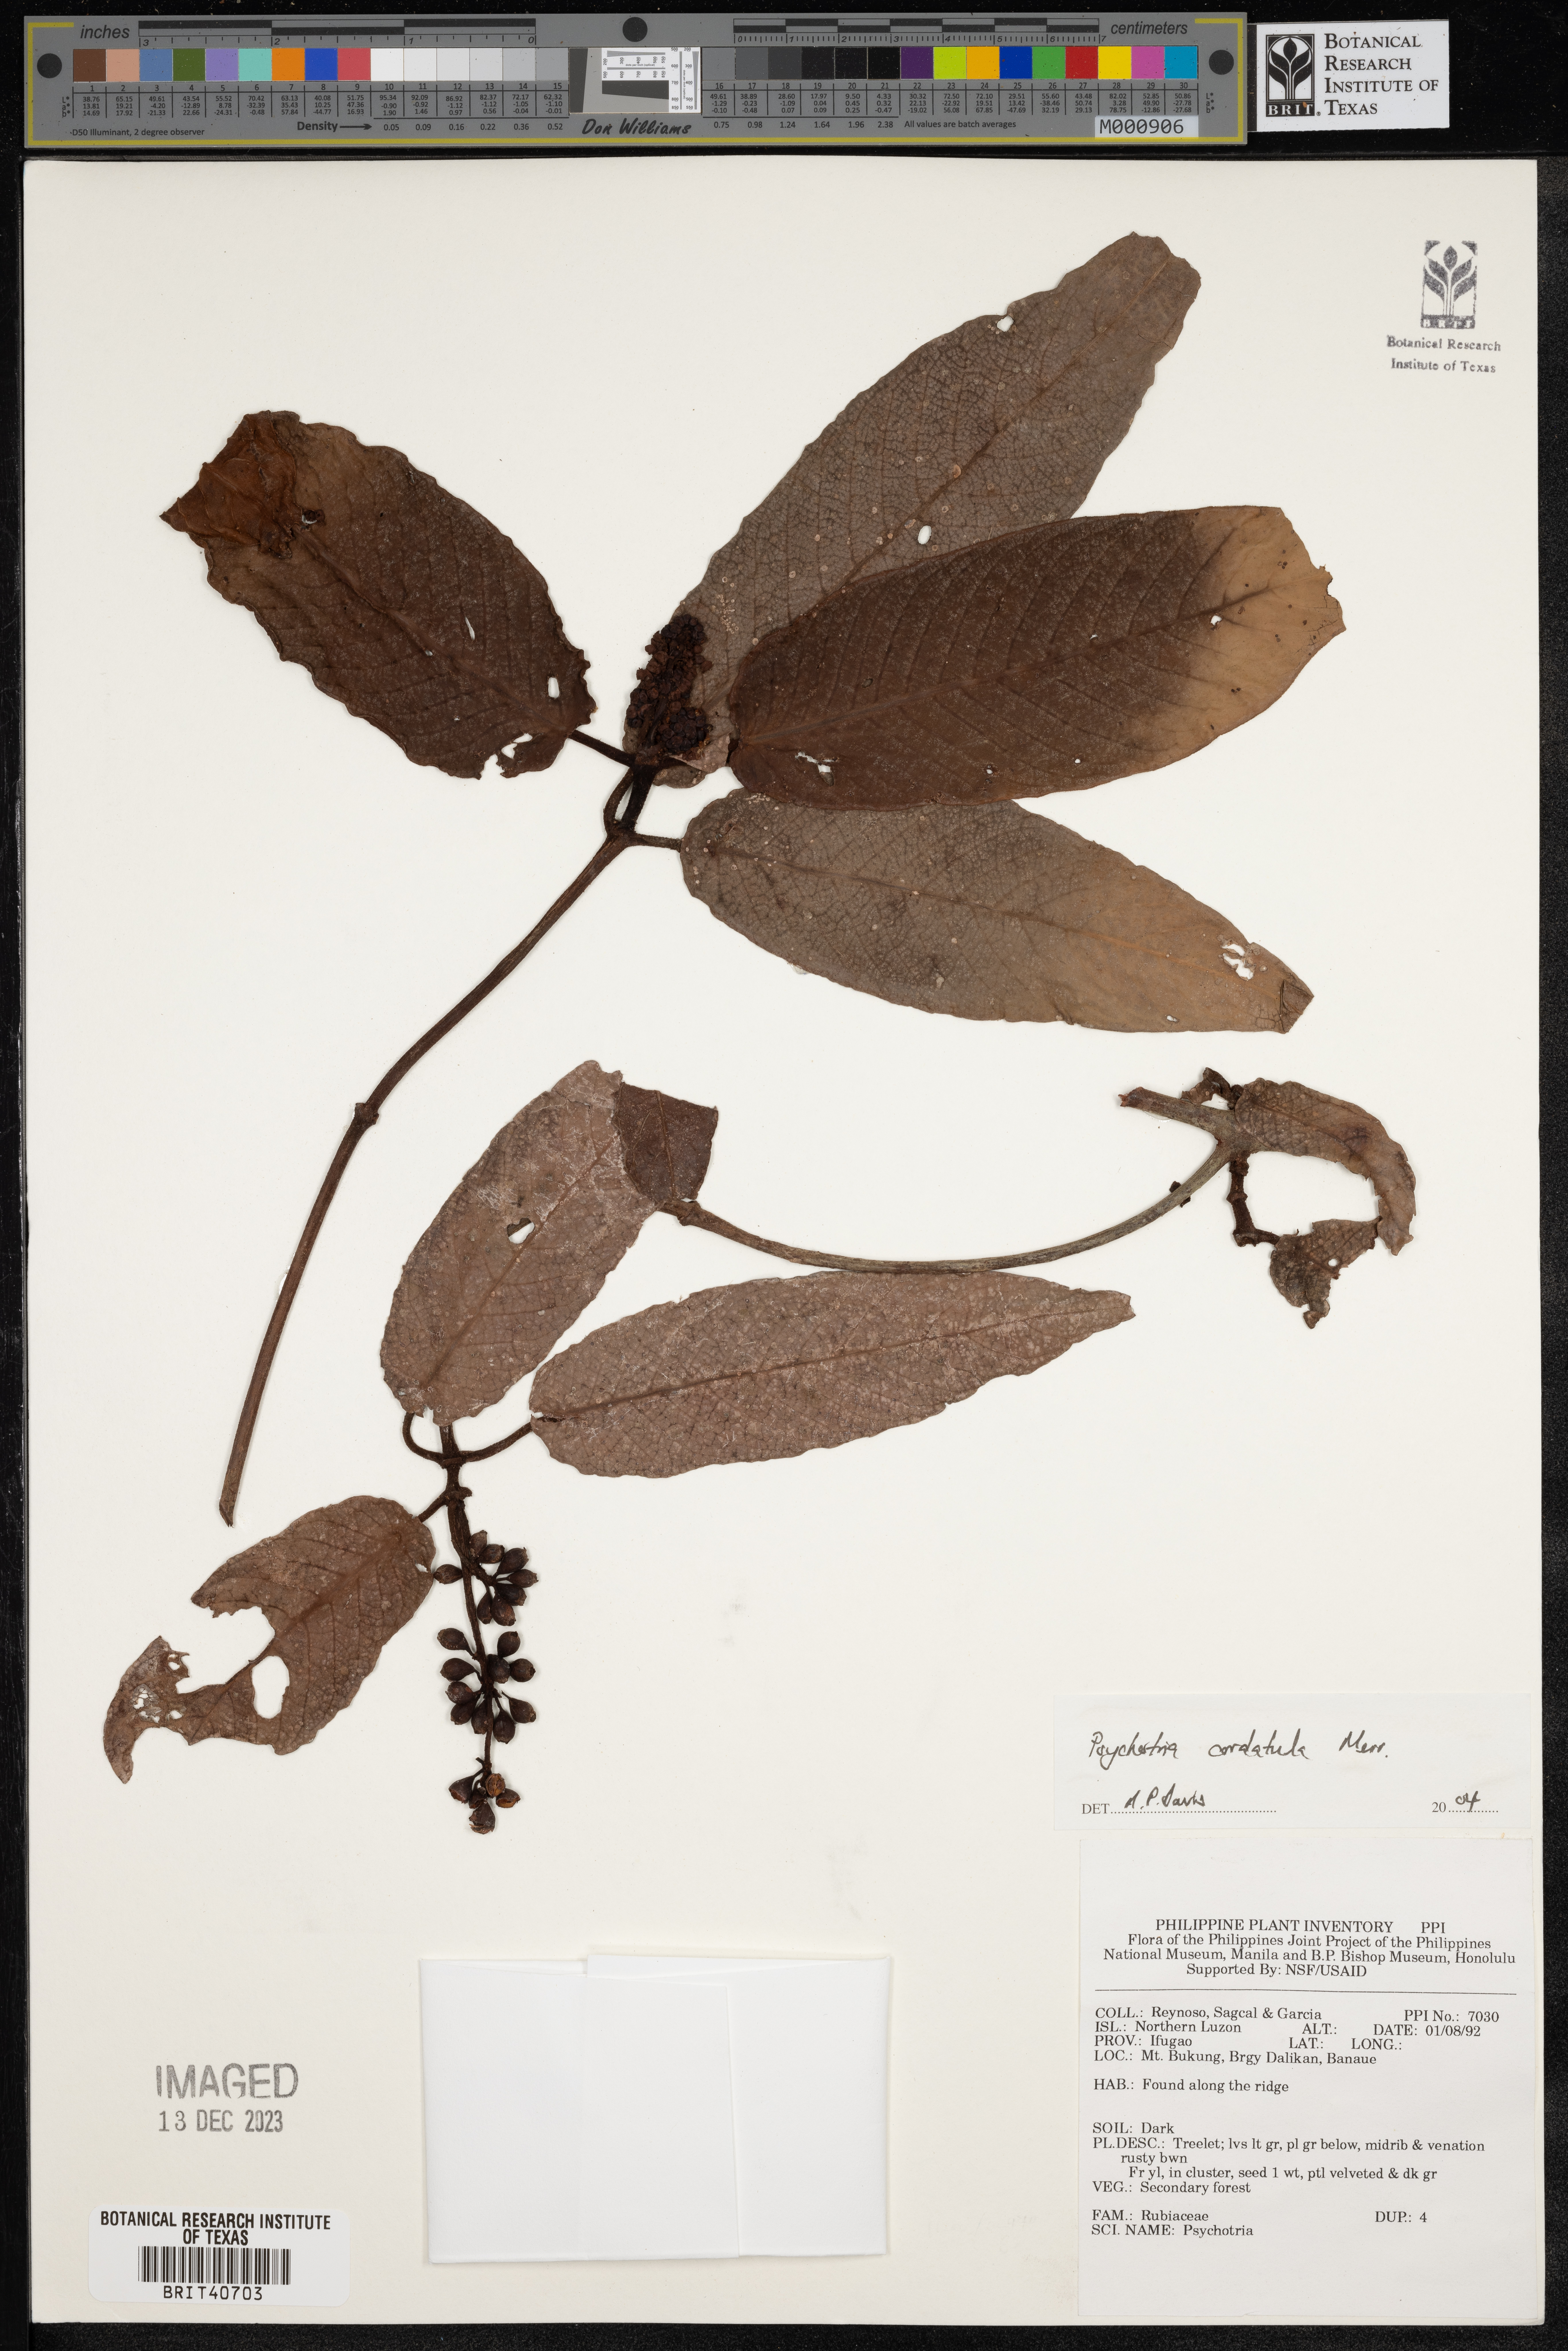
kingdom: Plantae
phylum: Tracheophyta
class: Magnoliopsida
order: Gentianales
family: Rubiaceae
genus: Psychotria
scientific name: Psychotria cordatula
